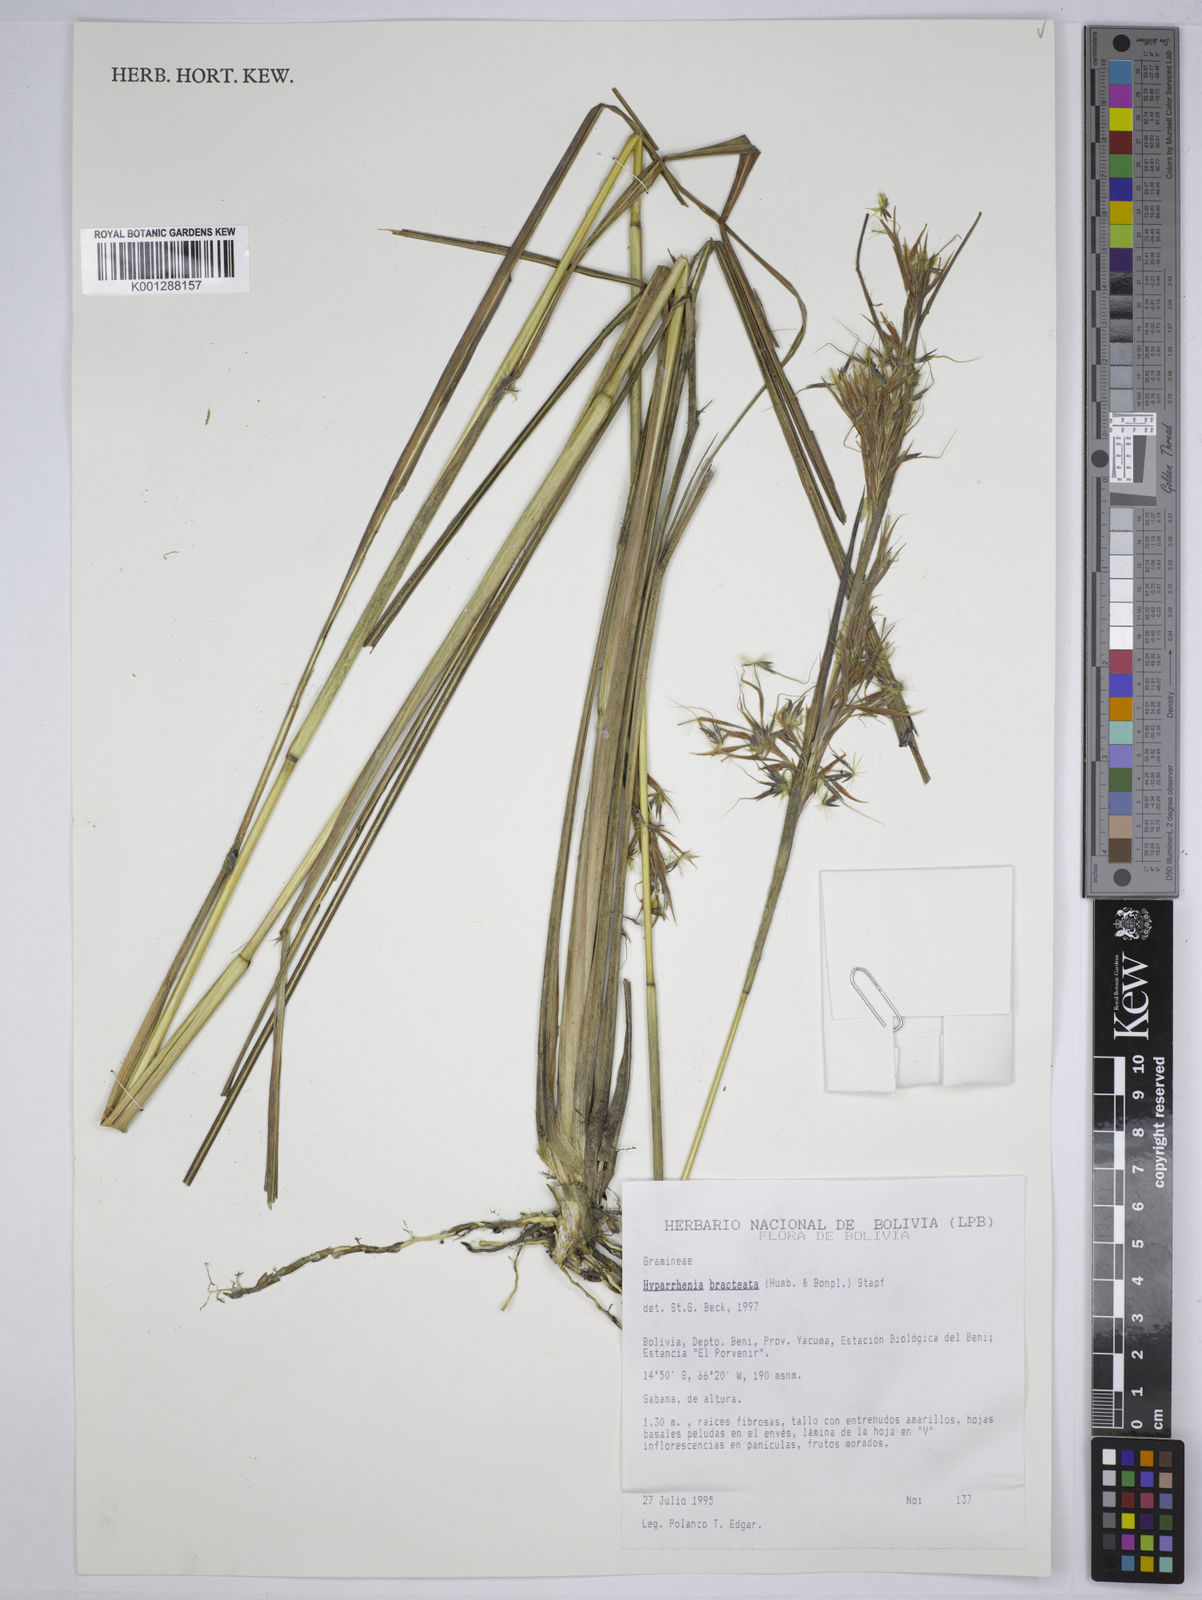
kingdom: Plantae
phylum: Tracheophyta
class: Liliopsida
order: Poales
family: Poaceae
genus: Hyparrhenia
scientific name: Hyparrhenia bracteata
